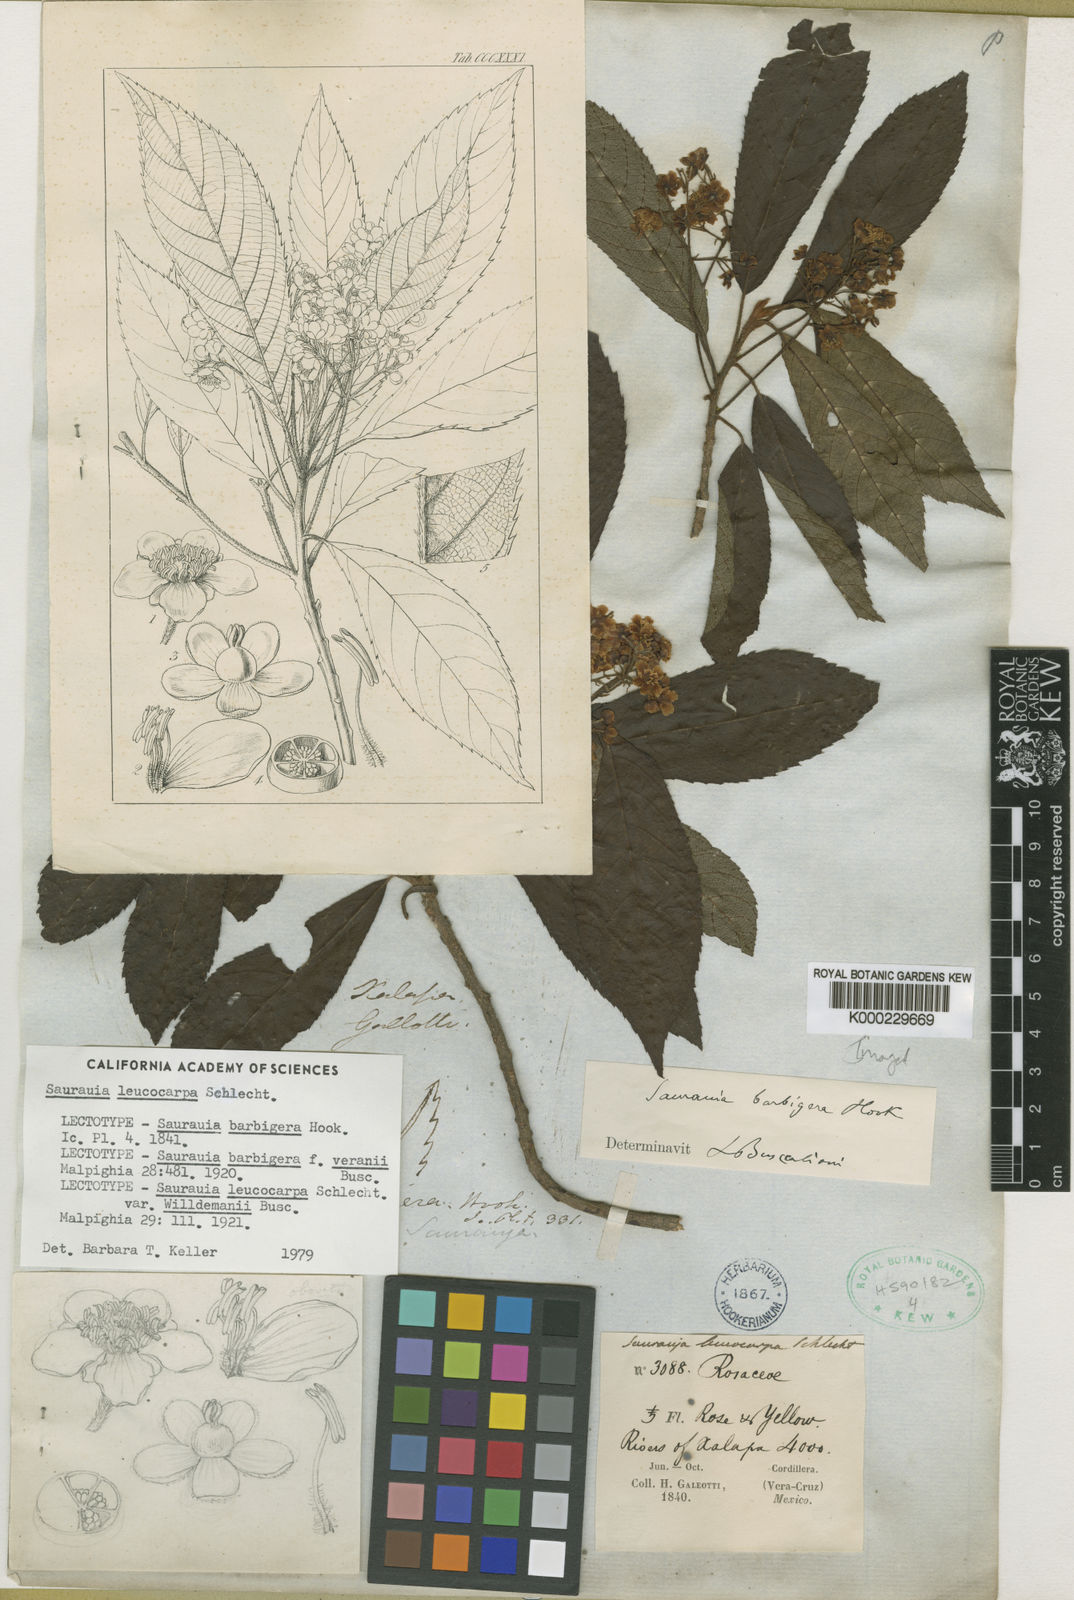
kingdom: Plantae
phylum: Tracheophyta
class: Magnoliopsida
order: Ericales
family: Actinidiaceae
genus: Saurauia
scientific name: Saurauia leucocarpa
